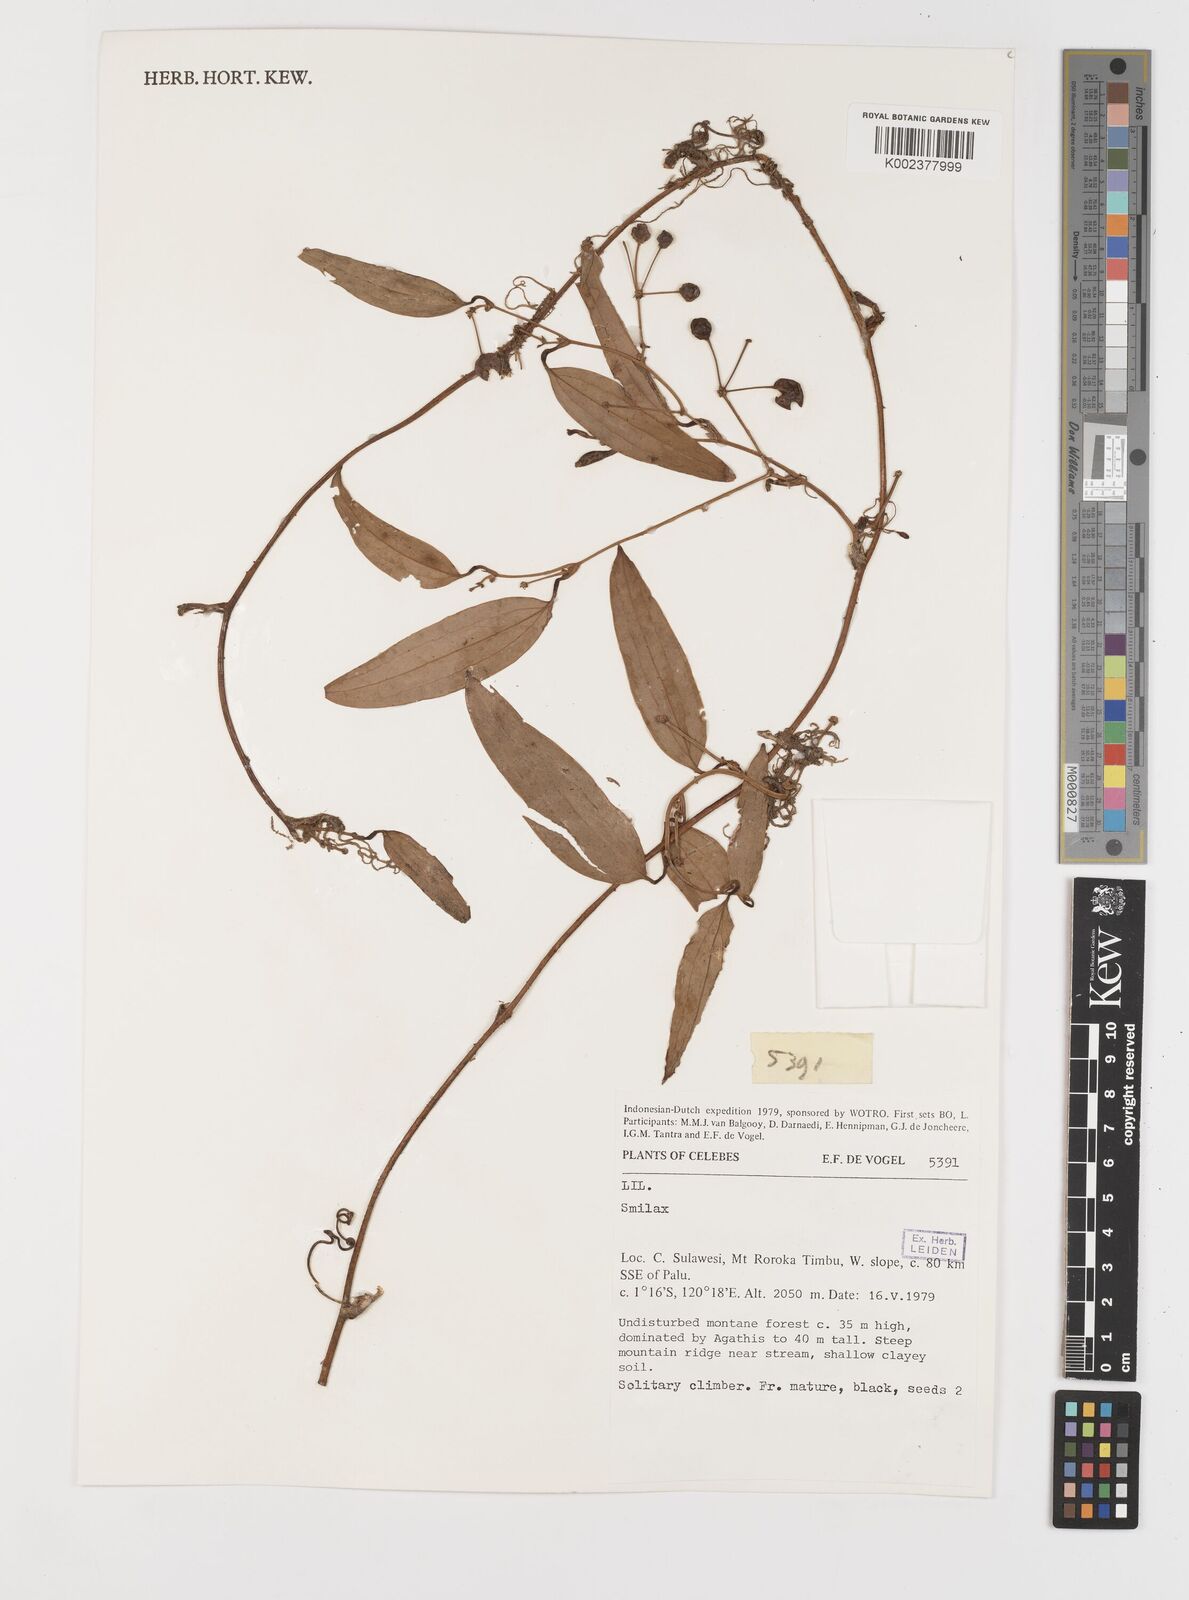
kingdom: Plantae
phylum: Tracheophyta
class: Liliopsida
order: Liliales
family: Smilacaceae
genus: Smilax
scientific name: Smilax
